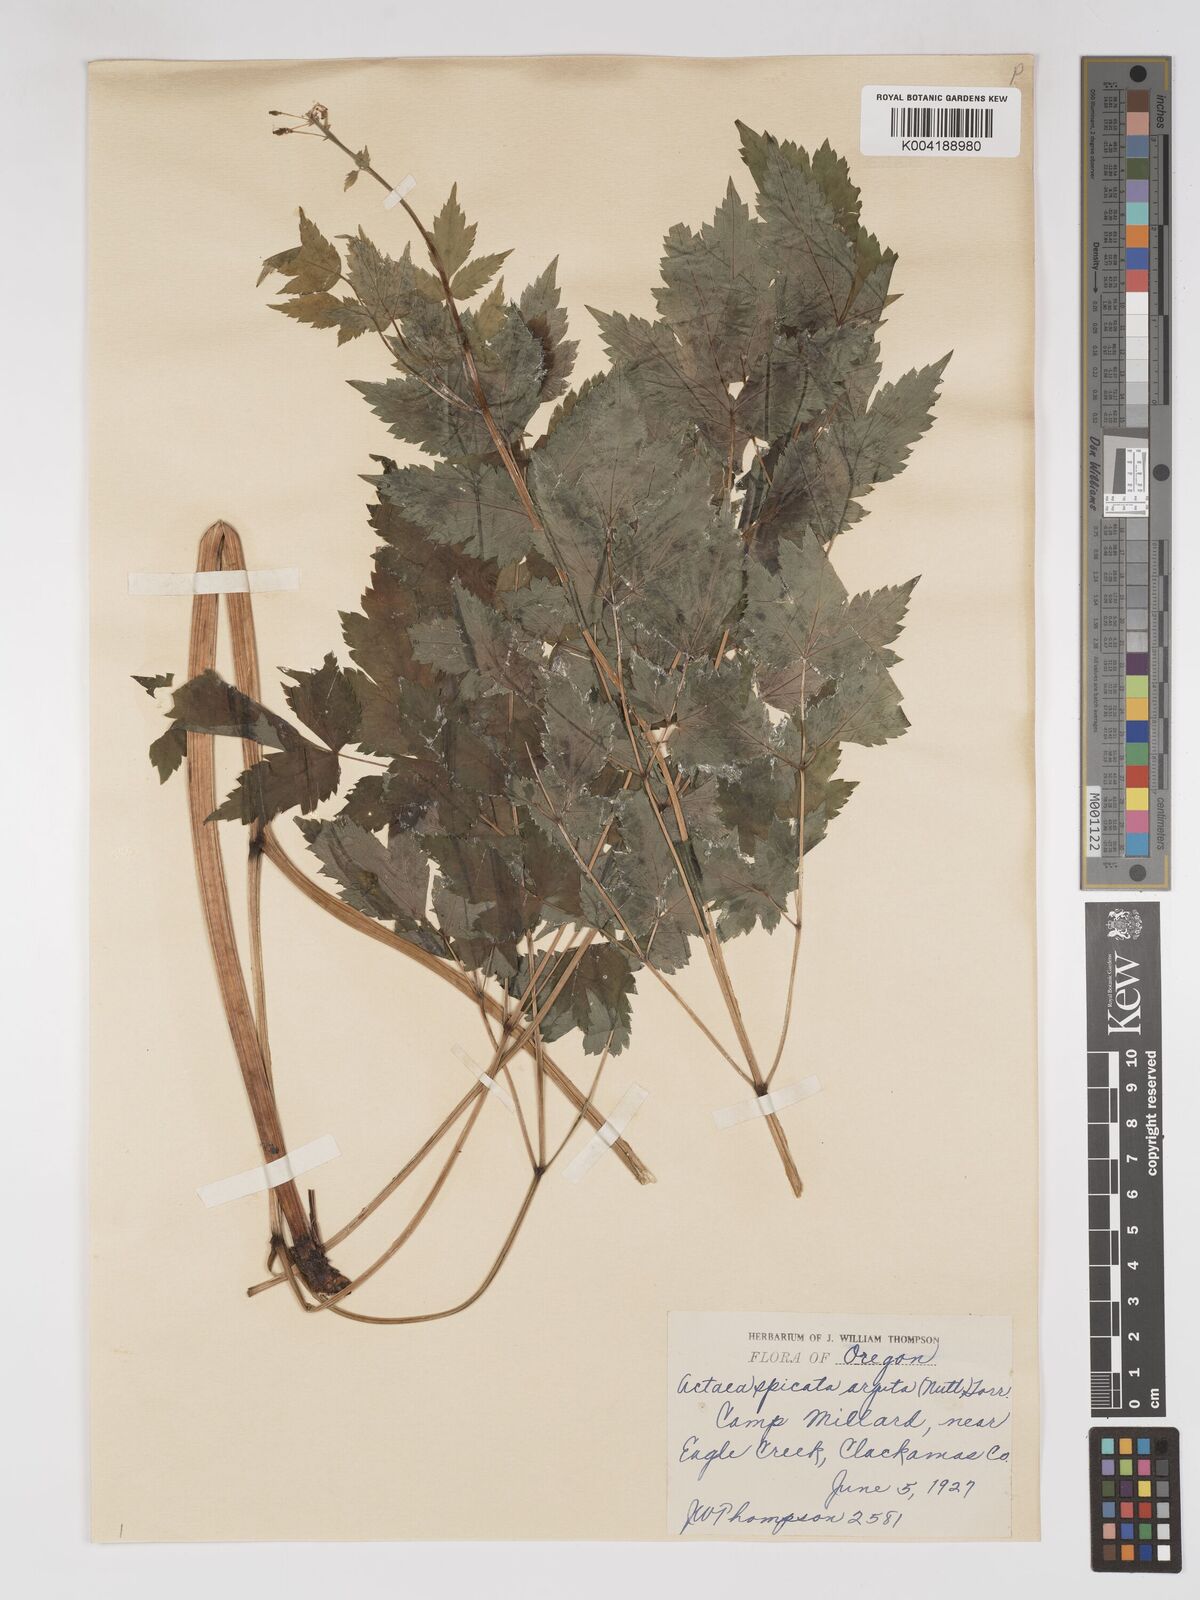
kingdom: Plantae
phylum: Tracheophyta
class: Magnoliopsida
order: Ranunculales
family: Ranunculaceae
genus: Actaea
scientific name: Actaea rubra
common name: Red baneberry
